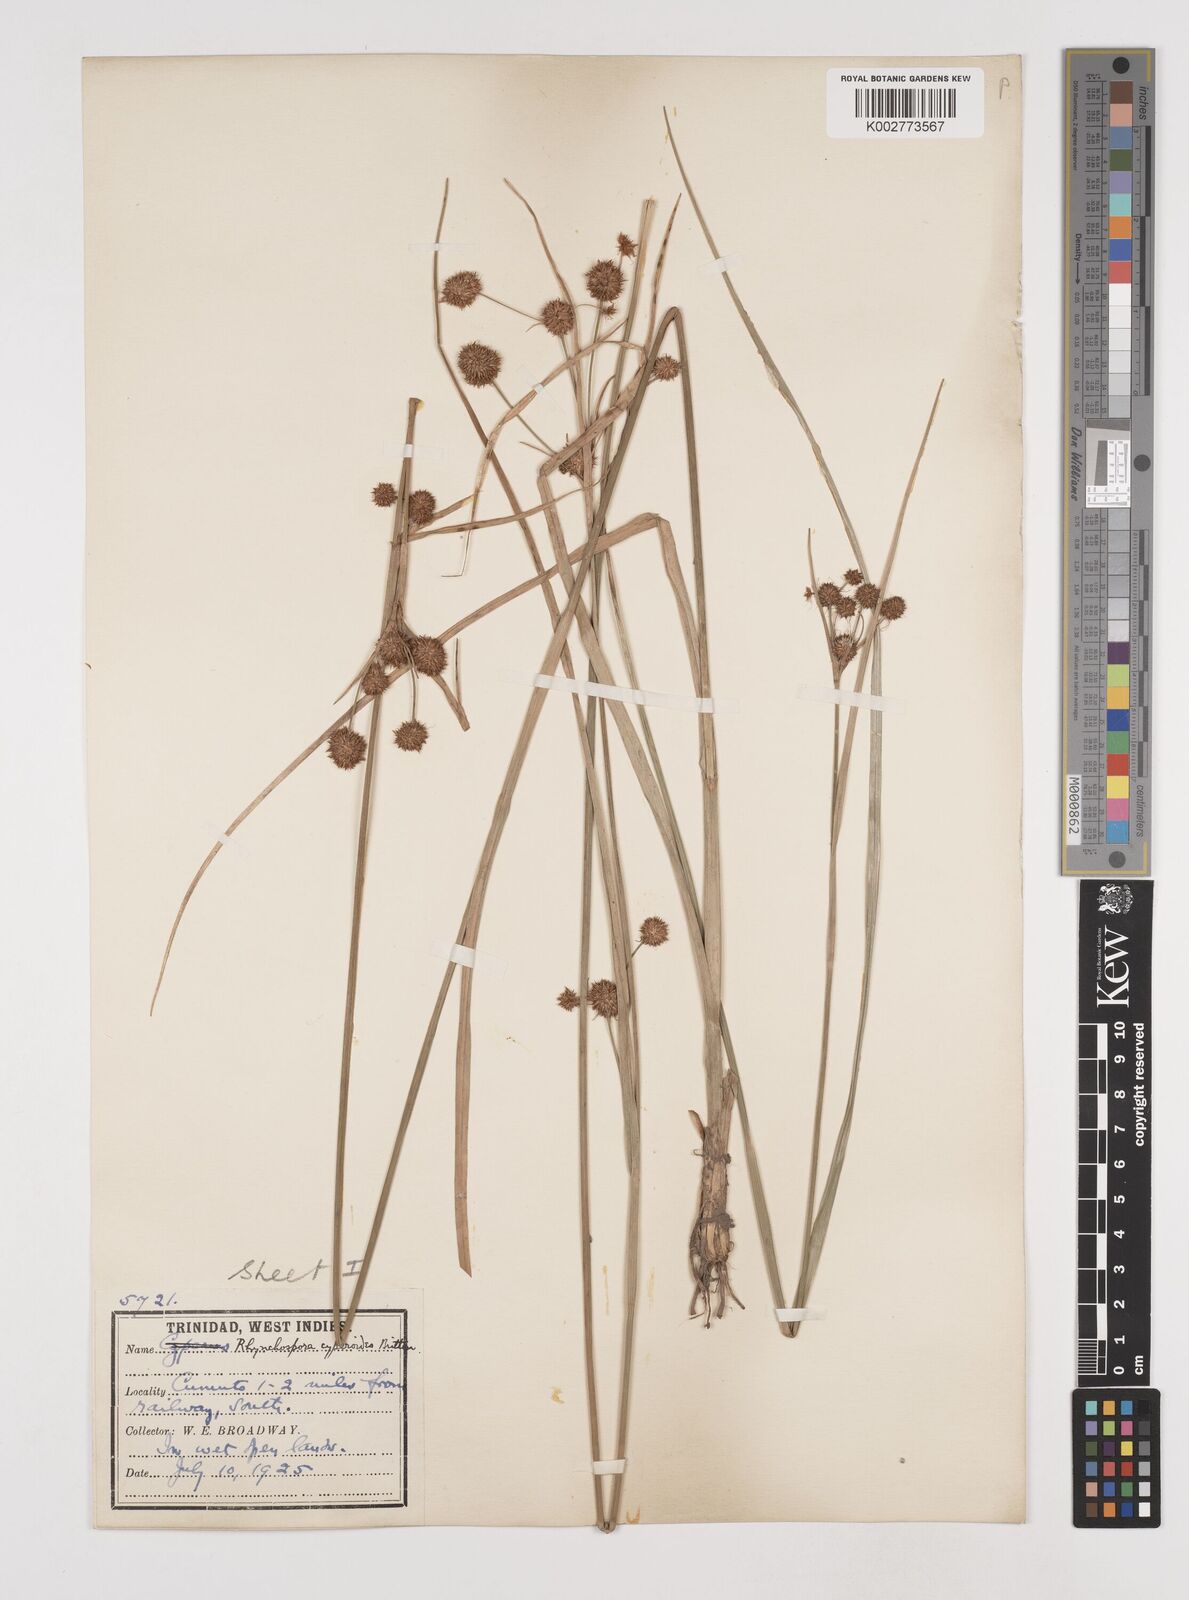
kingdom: Plantae
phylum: Tracheophyta
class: Liliopsida
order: Poales
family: Cyperaceae
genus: Rhynchospora
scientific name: Rhynchospora holoschoenoides
